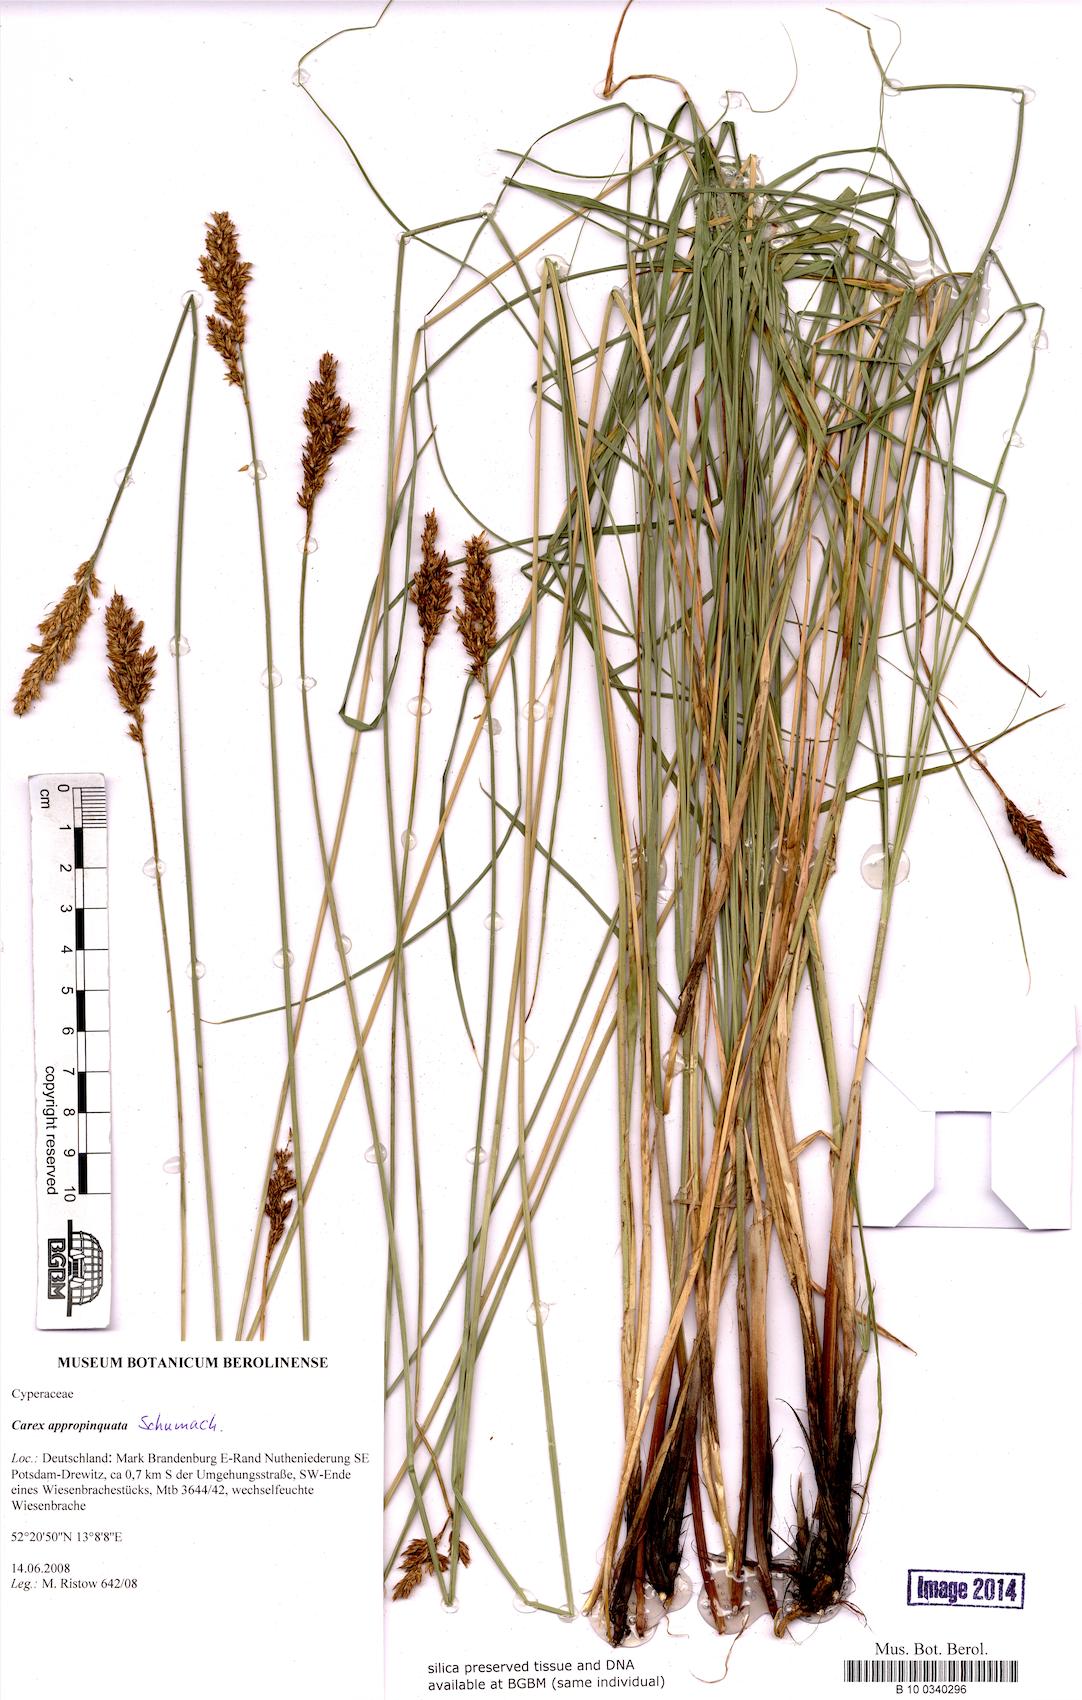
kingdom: Plantae
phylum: Tracheophyta
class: Liliopsida
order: Poales
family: Cyperaceae
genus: Carex
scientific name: Carex appropinquata
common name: Fibrous tussock-sedge
